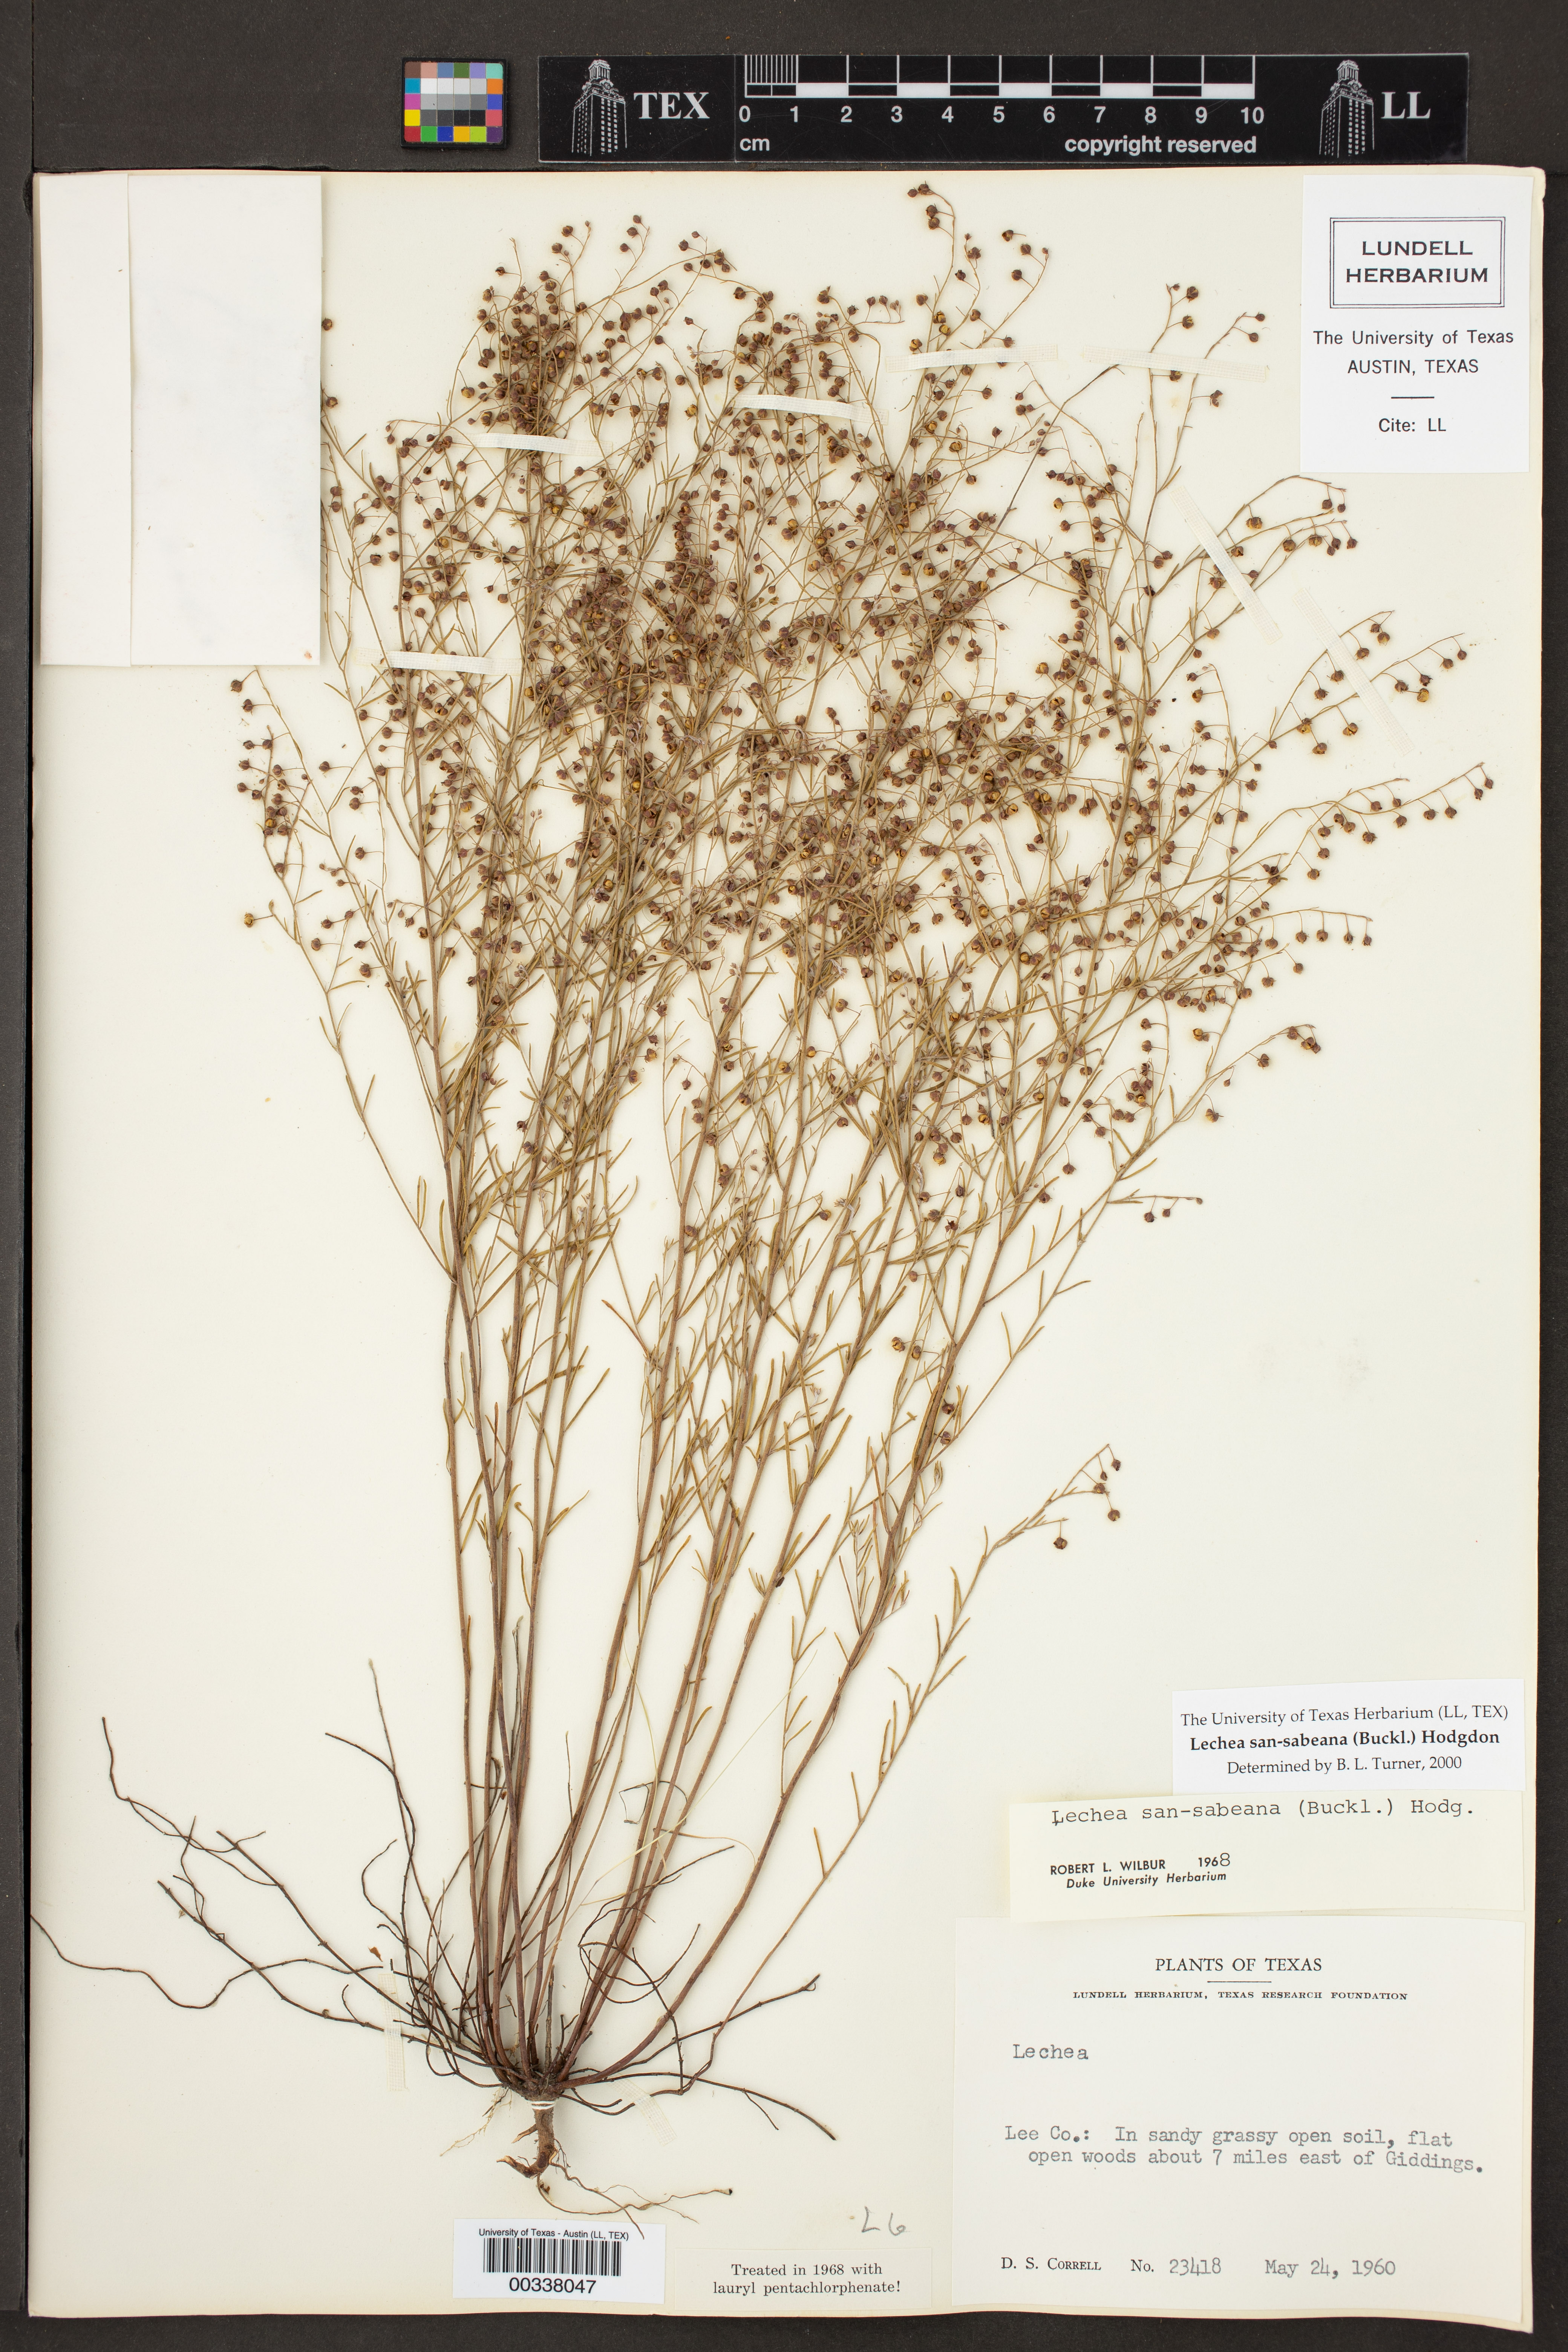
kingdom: Plantae
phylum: Tracheophyta
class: Magnoliopsida
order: Malvales
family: Cistaceae
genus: Lechea
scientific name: Lechea san-sabeana
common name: San saba pinweed
